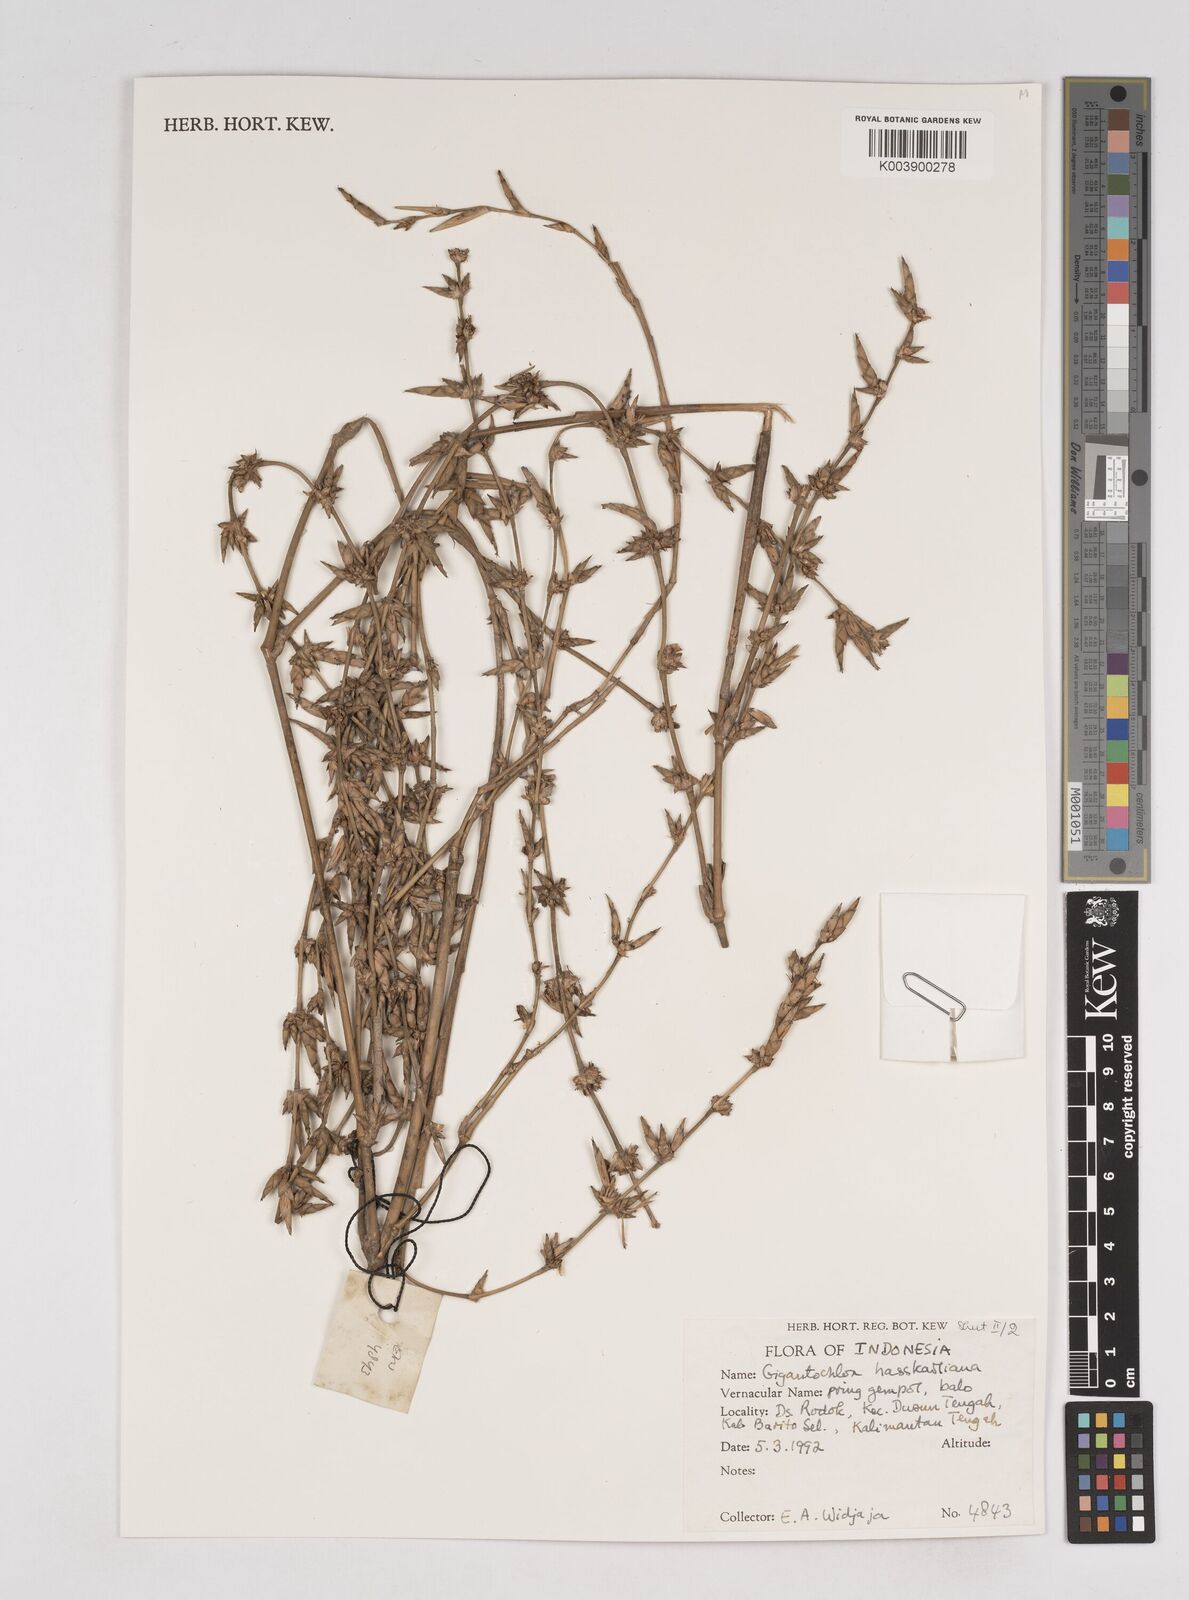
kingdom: Plantae
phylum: Tracheophyta
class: Liliopsida
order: Poales
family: Poaceae
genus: Gigantochloa
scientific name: Gigantochloa hasskarliana
